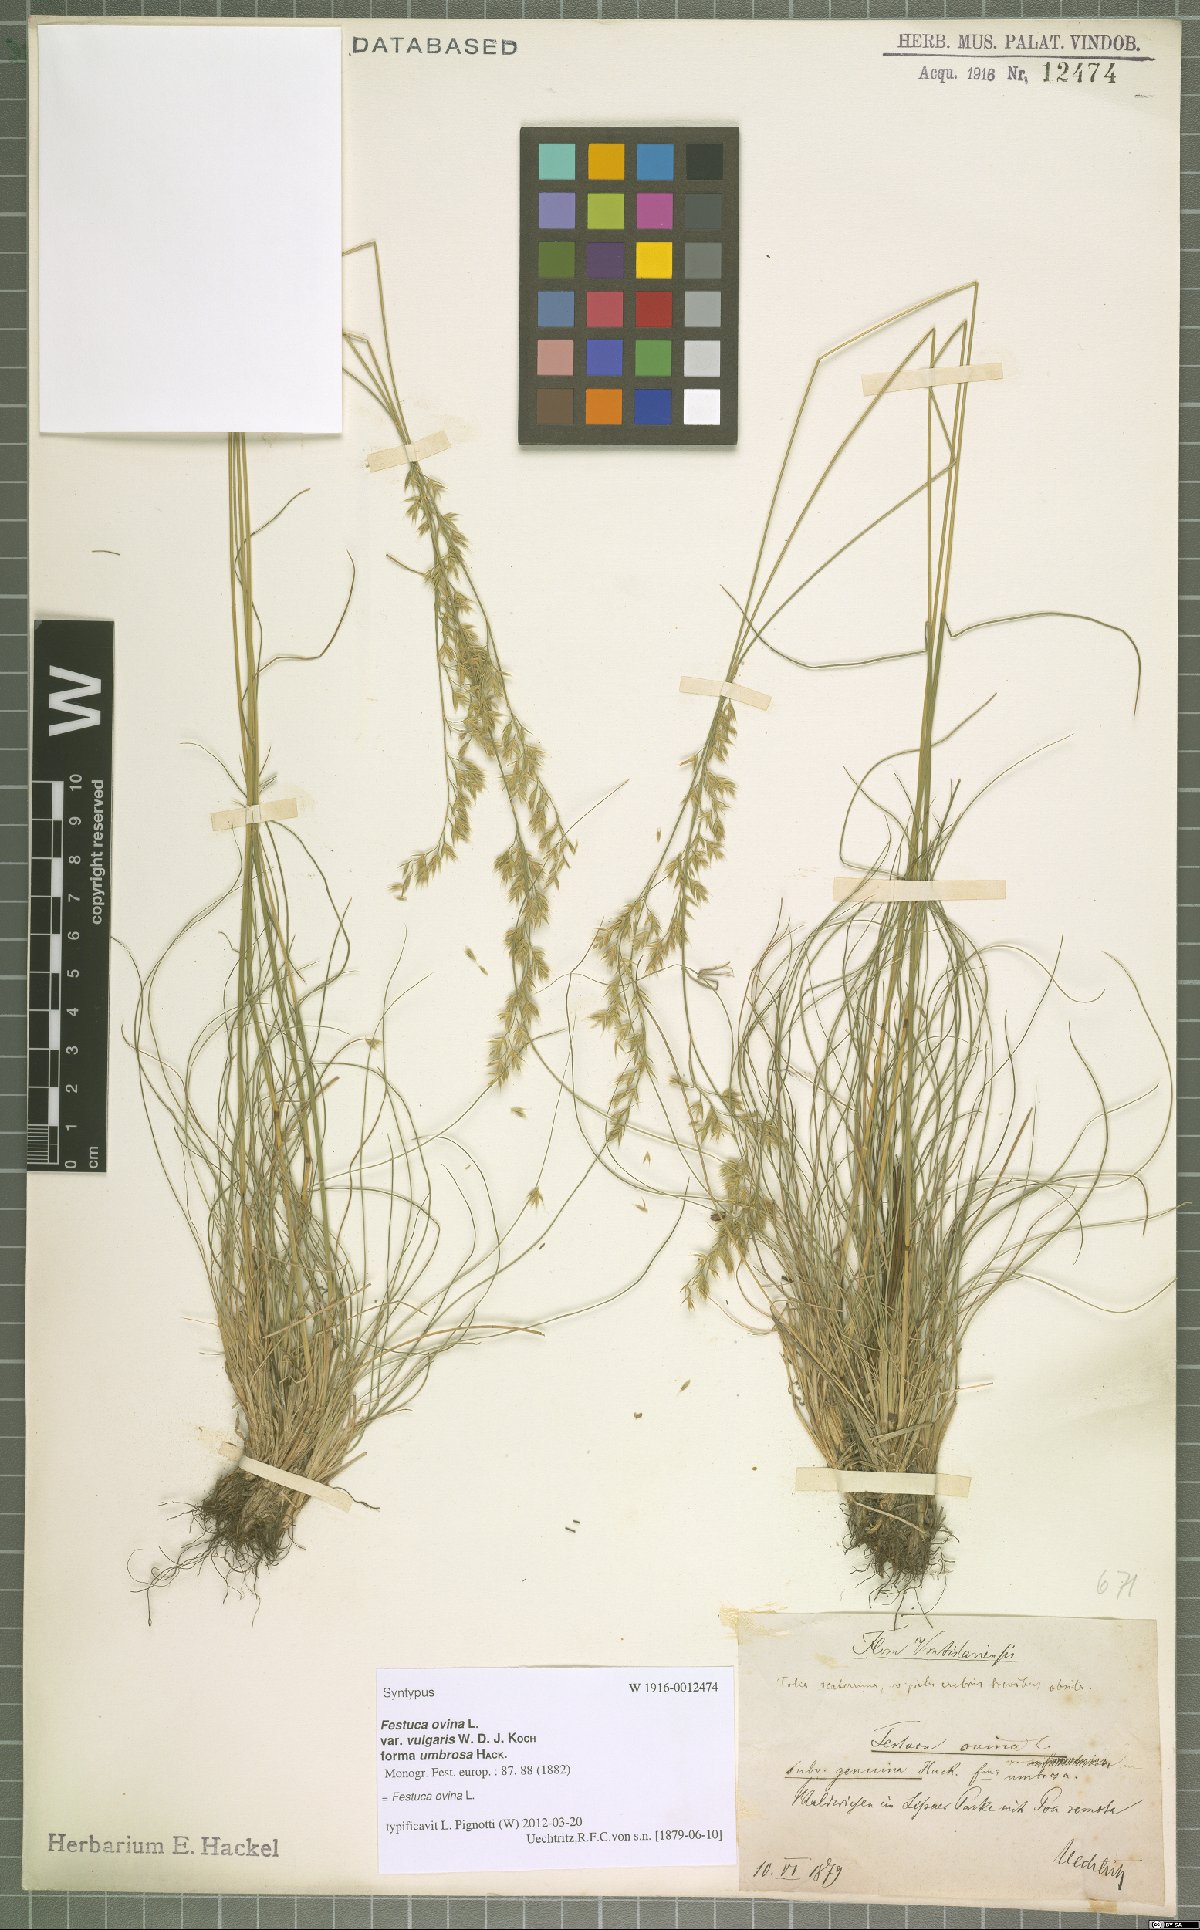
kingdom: Plantae
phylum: Tracheophyta
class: Liliopsida
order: Poales
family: Poaceae
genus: Festuca
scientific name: Festuca ovina
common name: Sheep fescue
